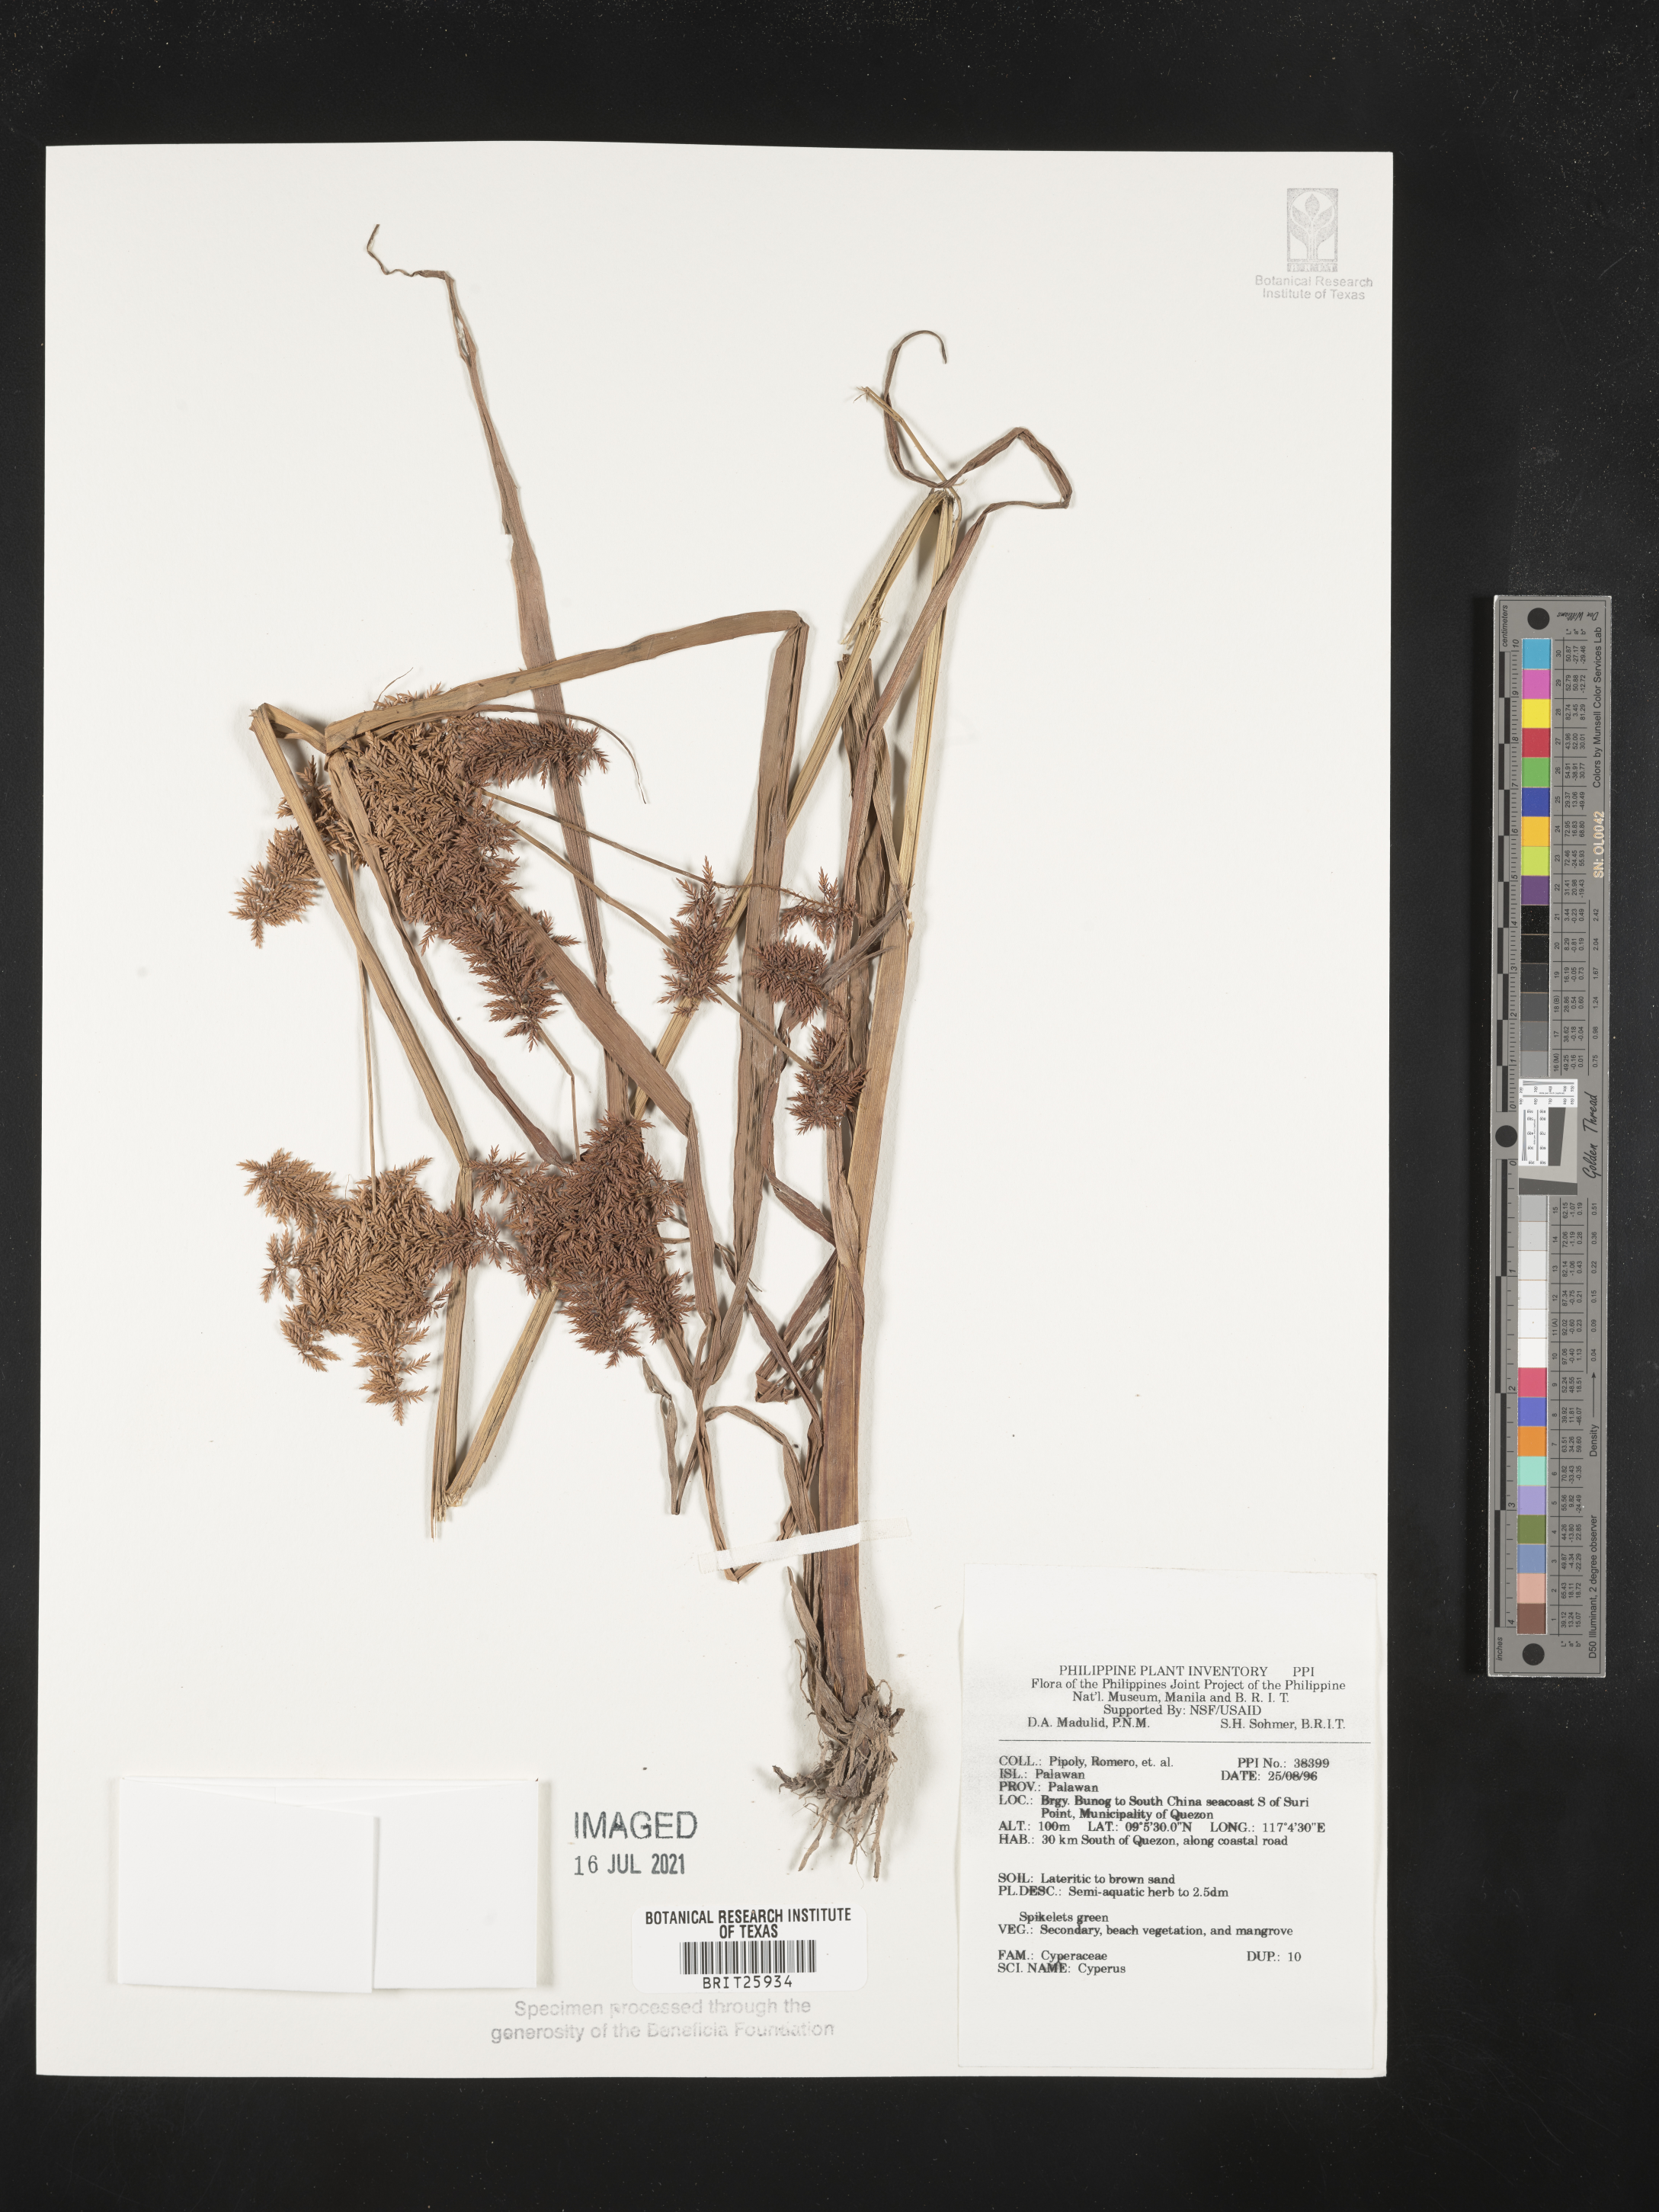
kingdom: Plantae
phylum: Tracheophyta
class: Liliopsida
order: Poales
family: Cyperaceae
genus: Cyperus
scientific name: Cyperus
